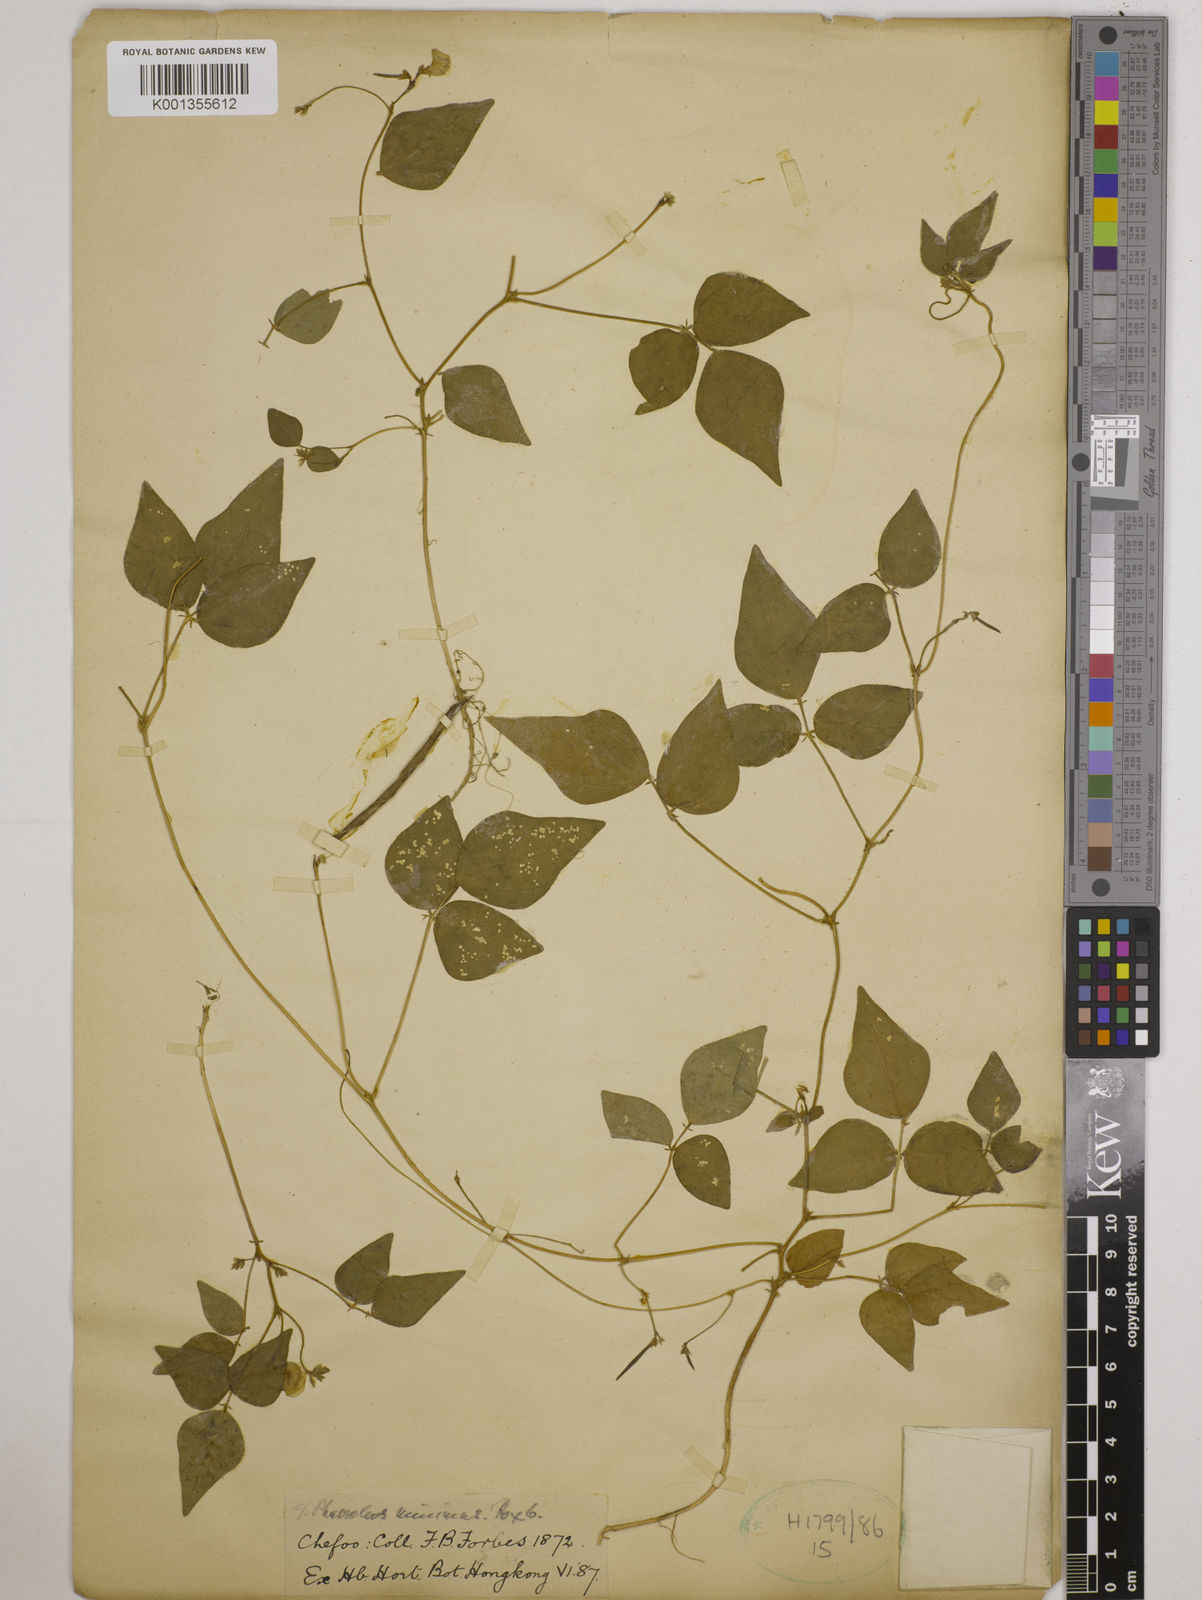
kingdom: Plantae
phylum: Tracheophyta
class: Magnoliopsida
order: Fabales
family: Fabaceae
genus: Vigna
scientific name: Vigna minima
